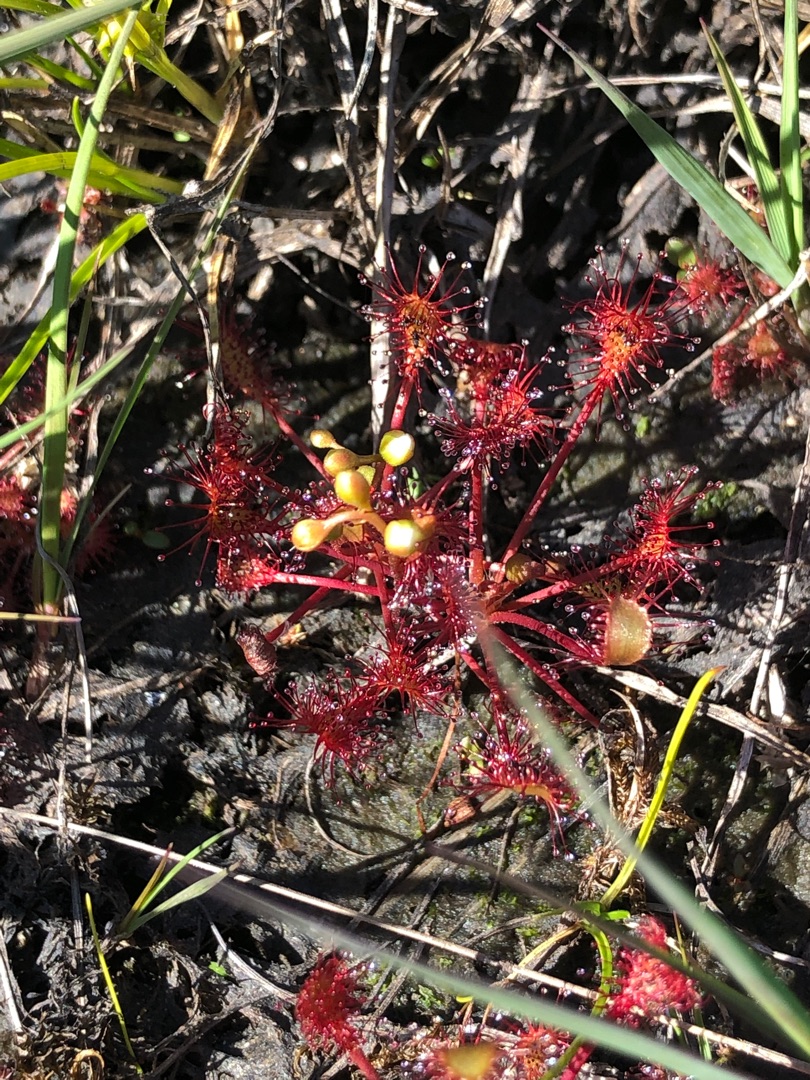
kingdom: Plantae
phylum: Tracheophyta
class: Magnoliopsida
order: Caryophyllales
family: Droseraceae
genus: Drosera
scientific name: Drosera intermedia
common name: Liden soldug
